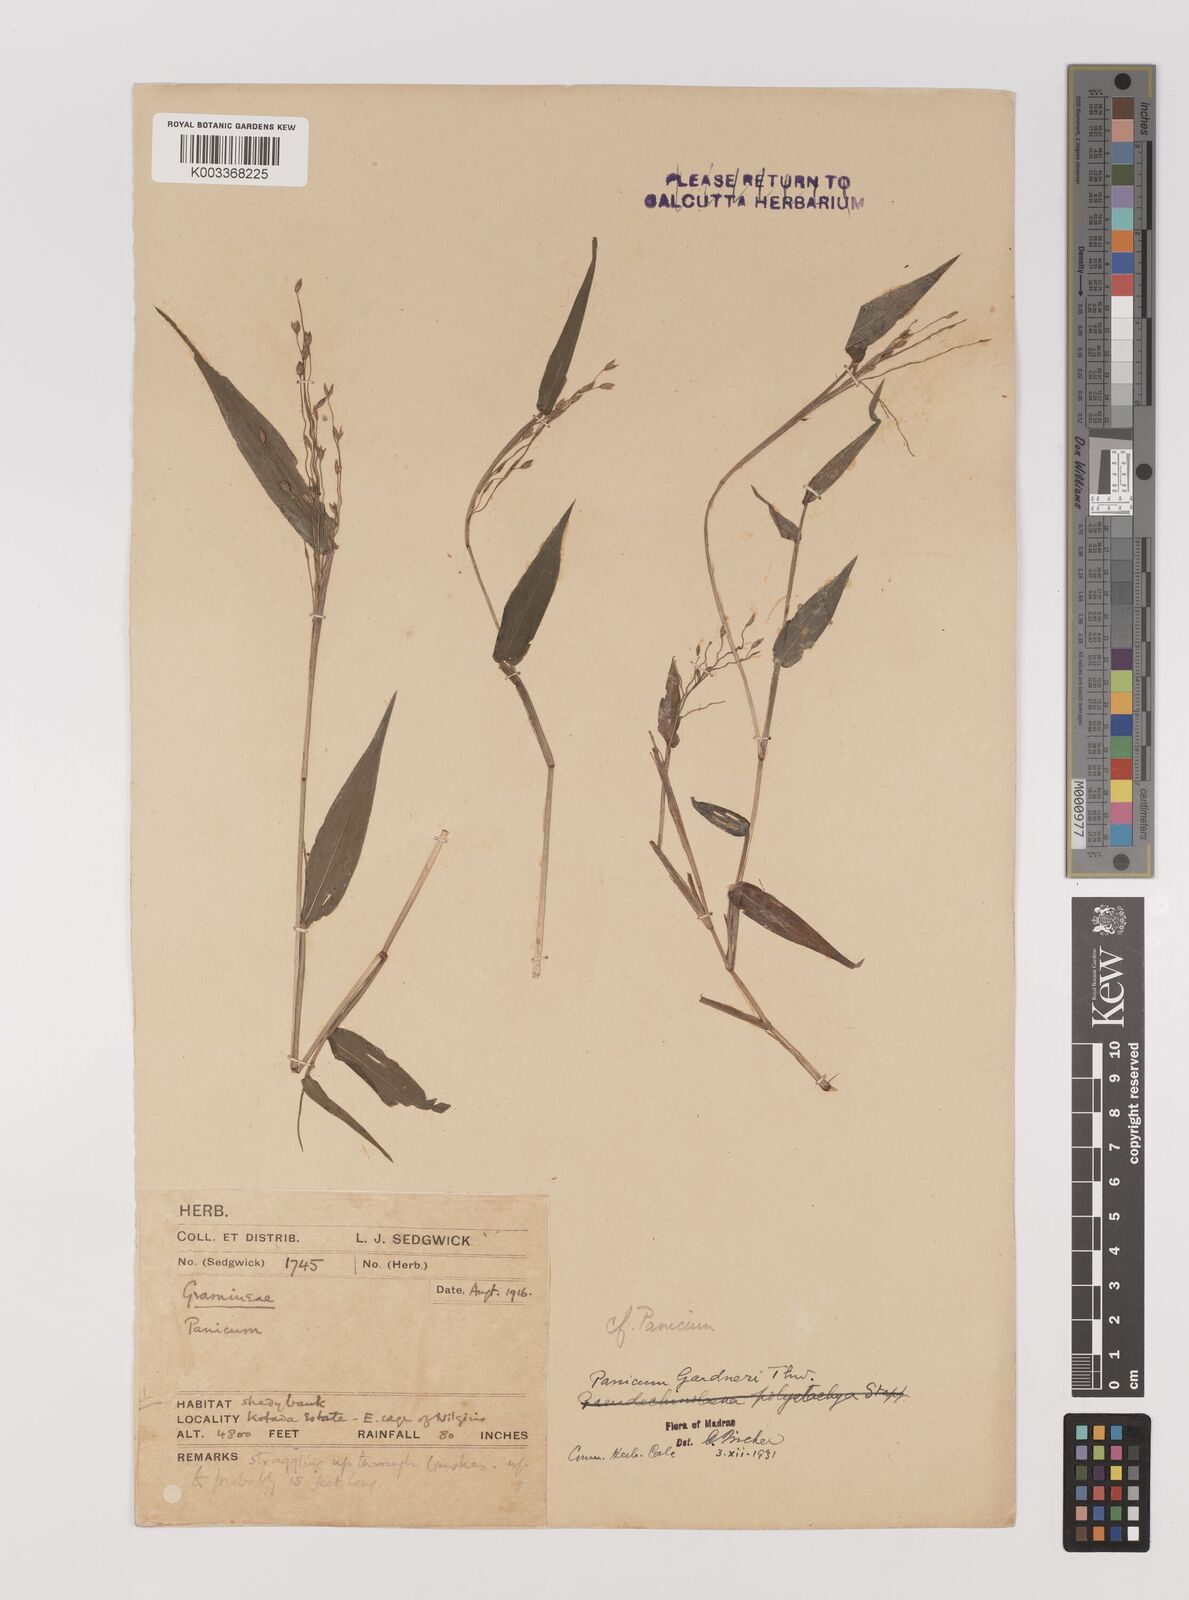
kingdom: Plantae
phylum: Tracheophyta
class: Liliopsida
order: Poales
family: Poaceae
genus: Panicum
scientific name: Panicum gardneri
